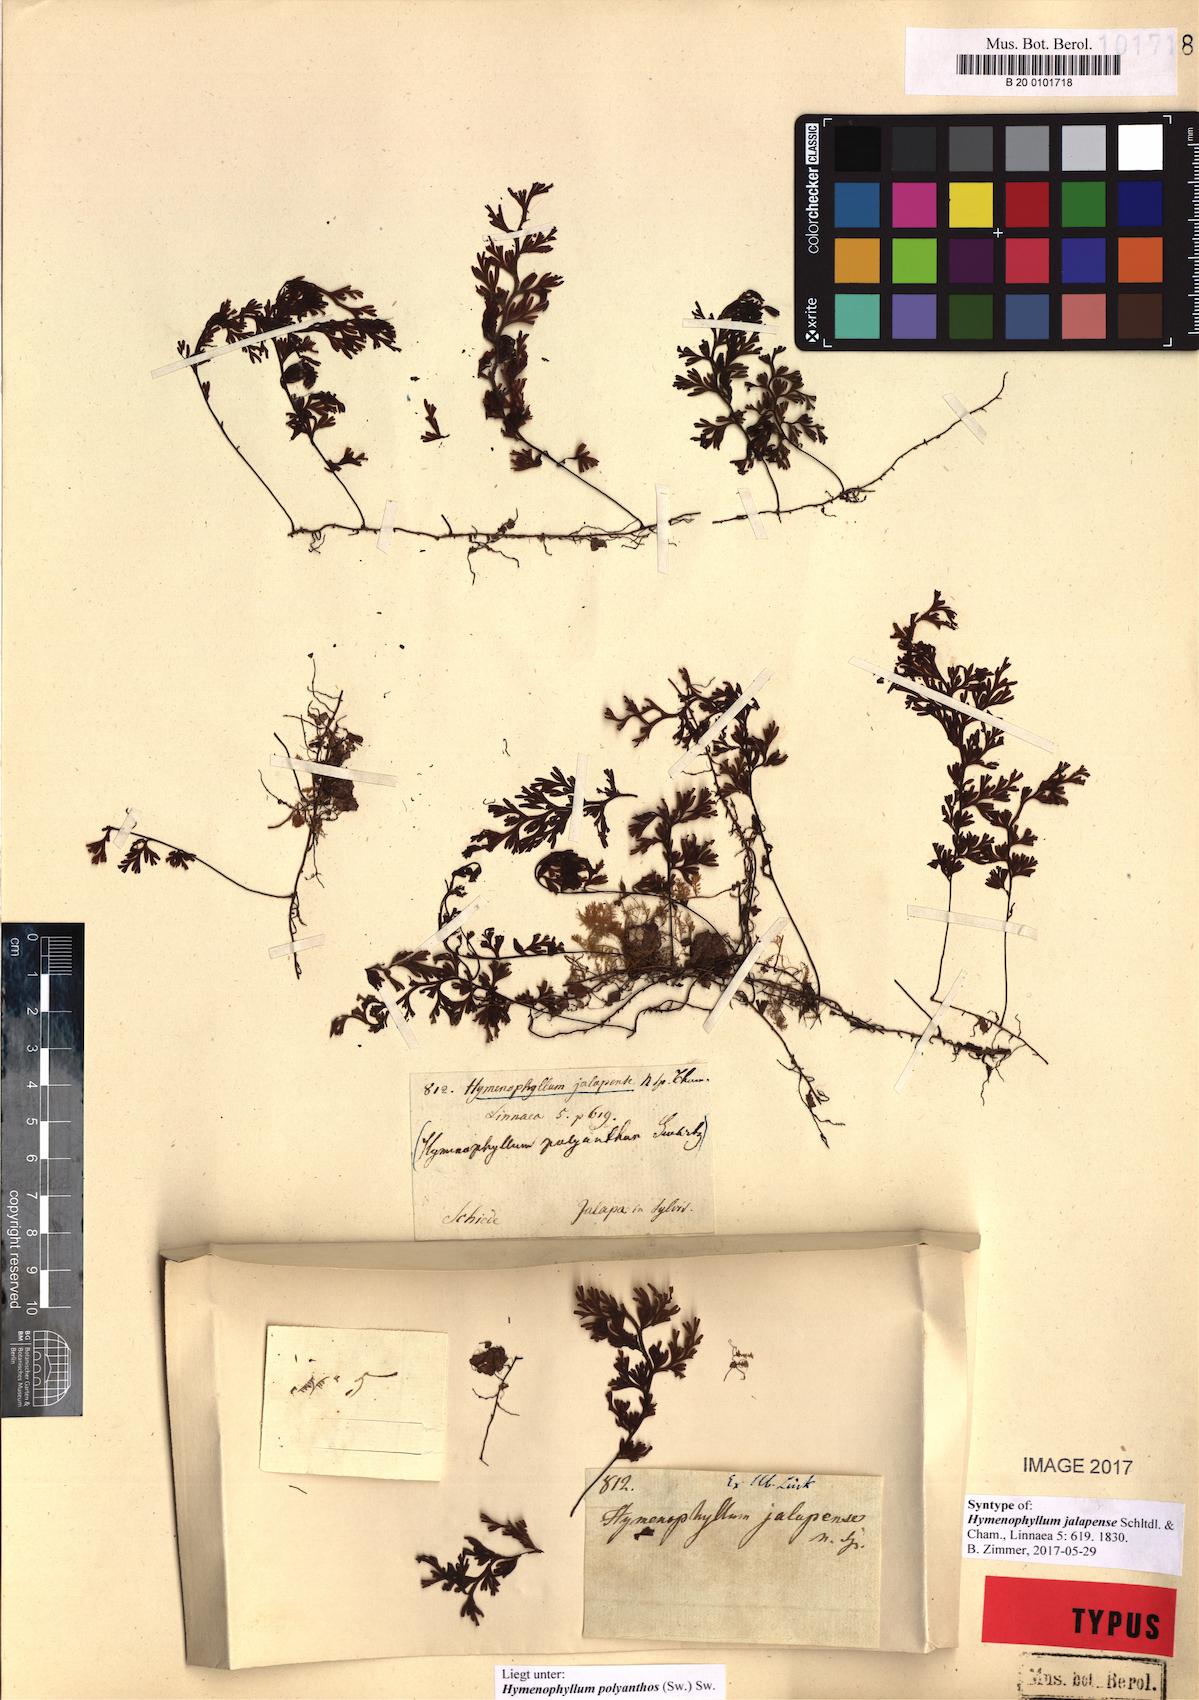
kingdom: Plantae
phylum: Tracheophyta
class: Polypodiopsida
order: Hymenophyllales
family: Hymenophyllaceae
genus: Hymenophyllum
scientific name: Hymenophyllum polyanthos
